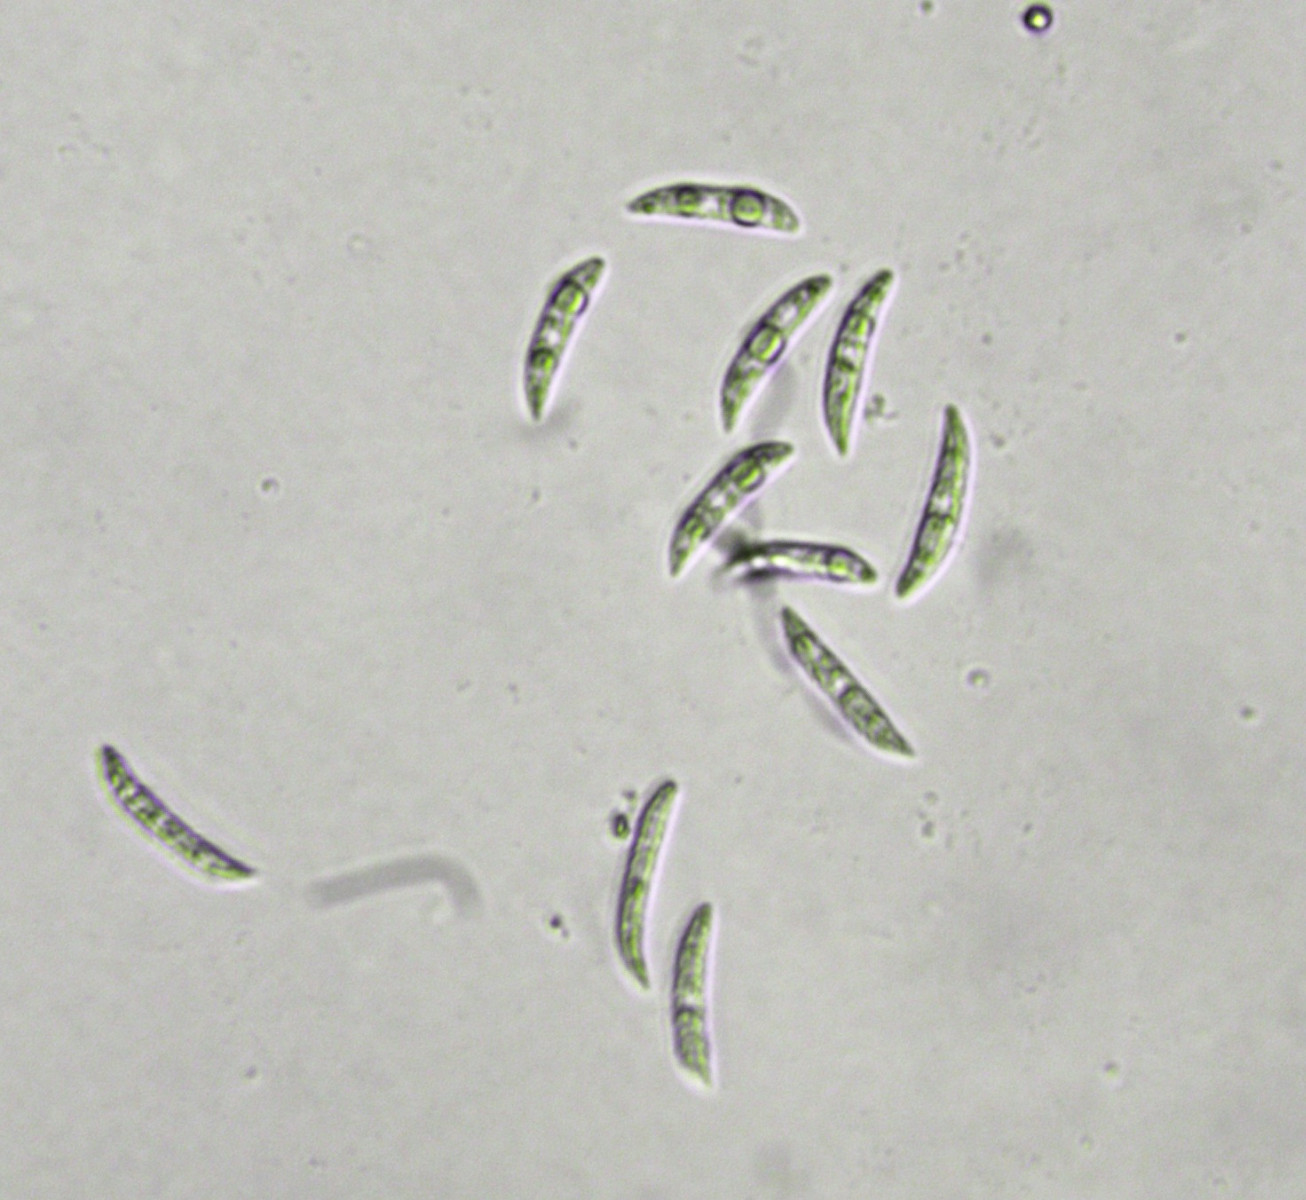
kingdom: Fungi
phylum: Ascomycota
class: Sordariomycetes
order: Glomerellales
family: Glomerellaceae
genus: Colletotrichum
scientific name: Colletotrichum dematium
